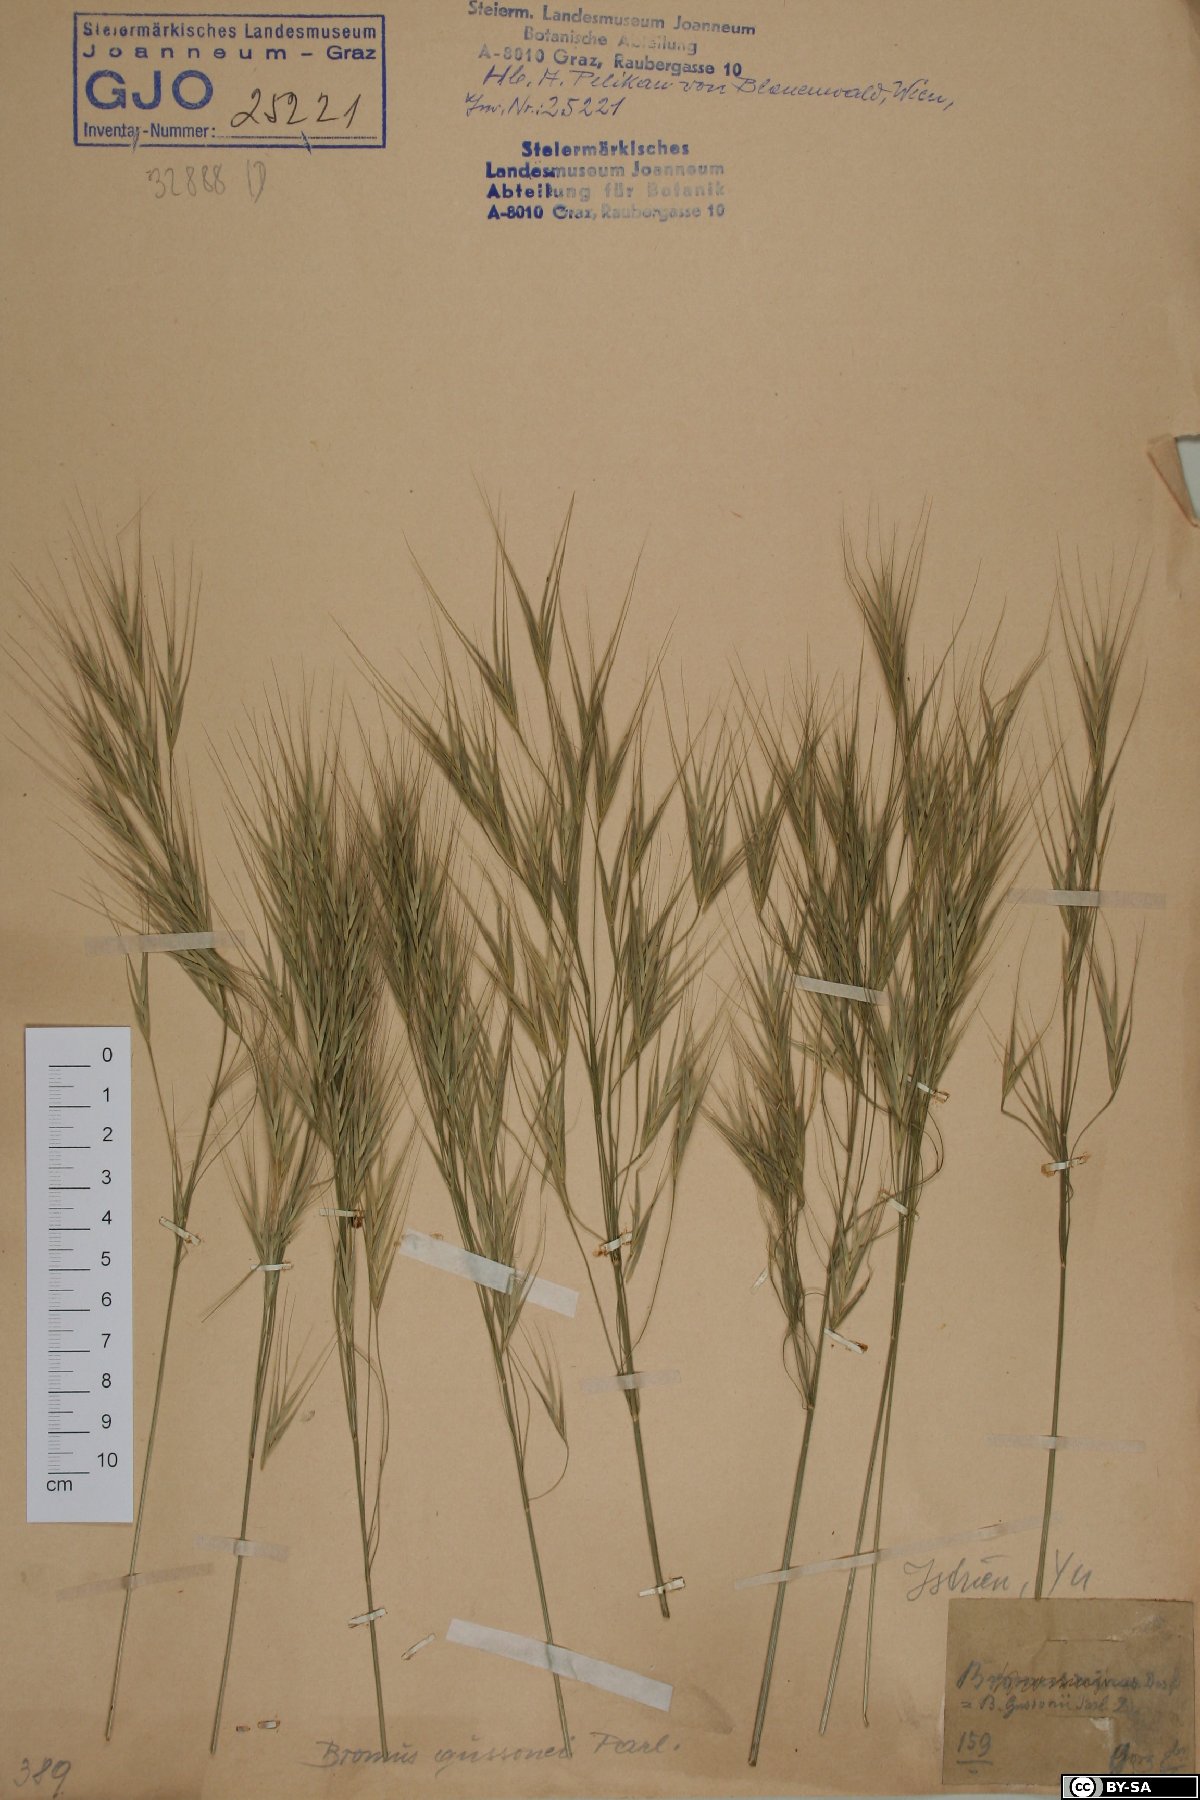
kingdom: Plantae
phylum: Tracheophyta
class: Liliopsida
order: Poales
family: Poaceae
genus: Bromus
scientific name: Bromus diandrus
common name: Ripgut brome
